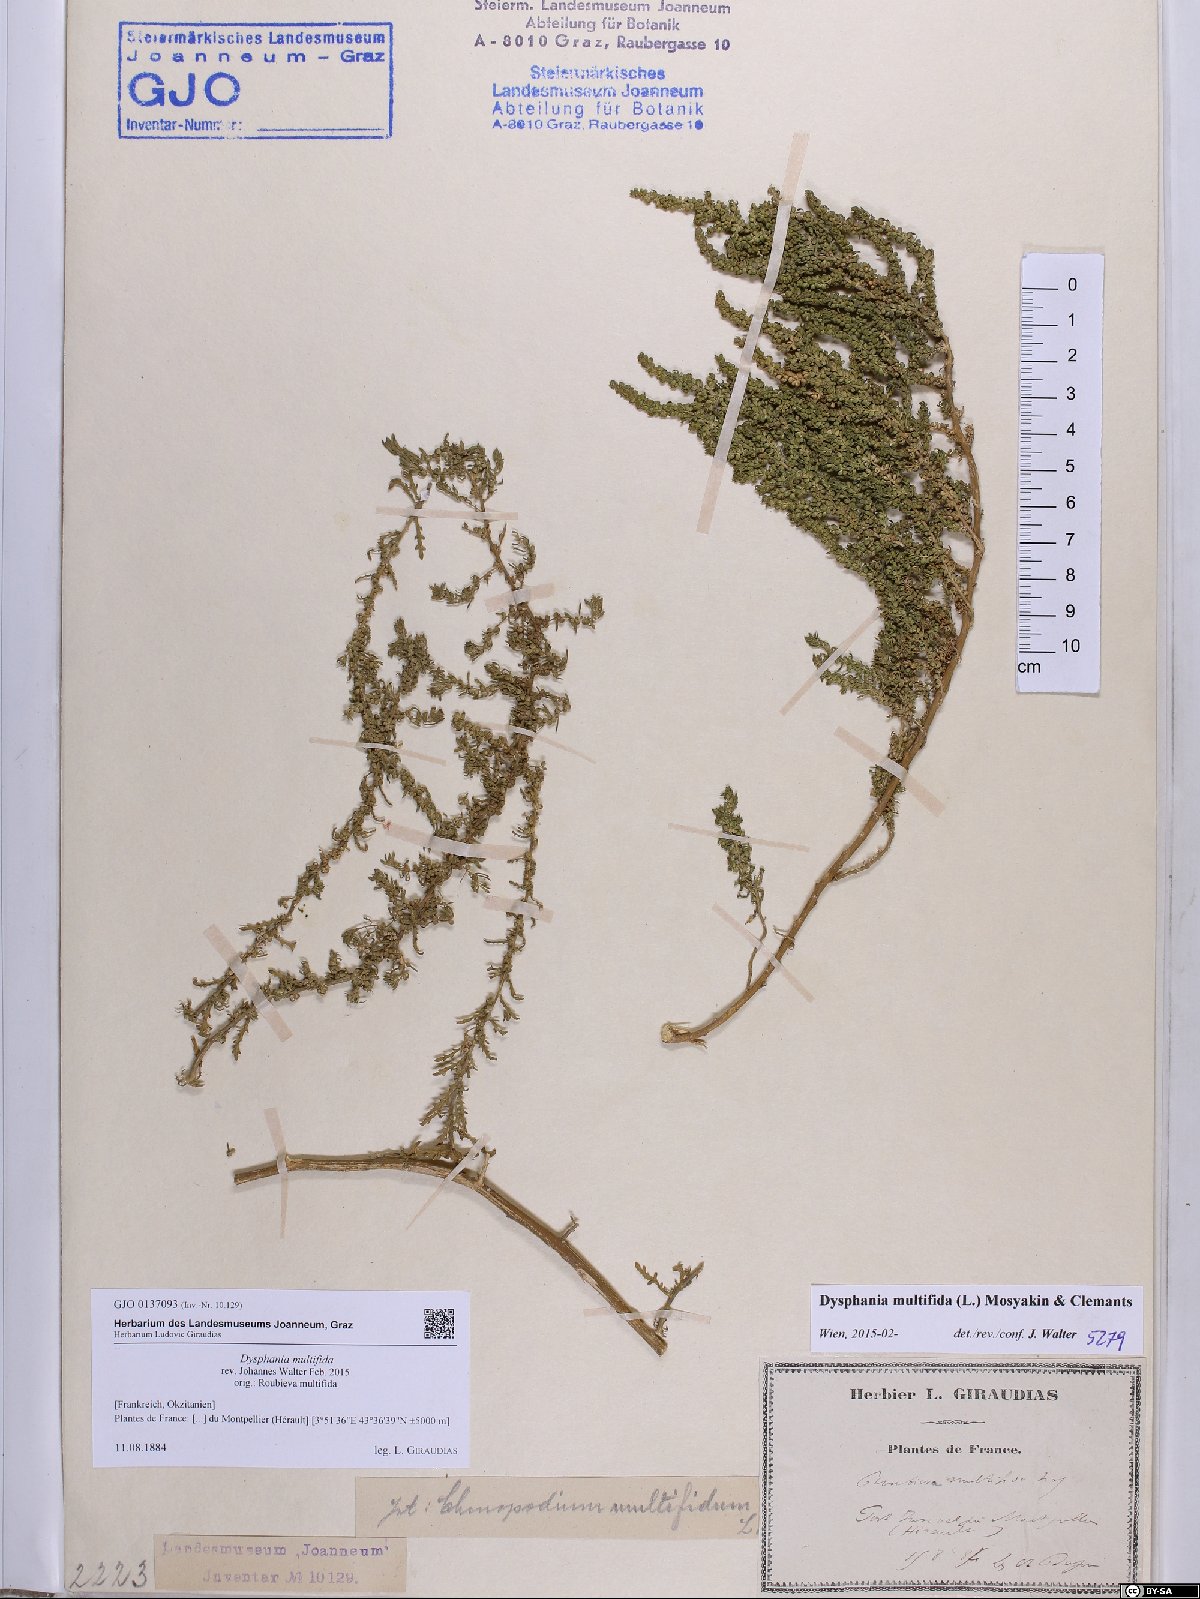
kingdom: Plantae
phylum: Tracheophyta
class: Magnoliopsida
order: Caryophyllales
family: Amaranthaceae
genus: Dysphania
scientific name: Dysphania multifida
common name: Cutleaf goosefoot
